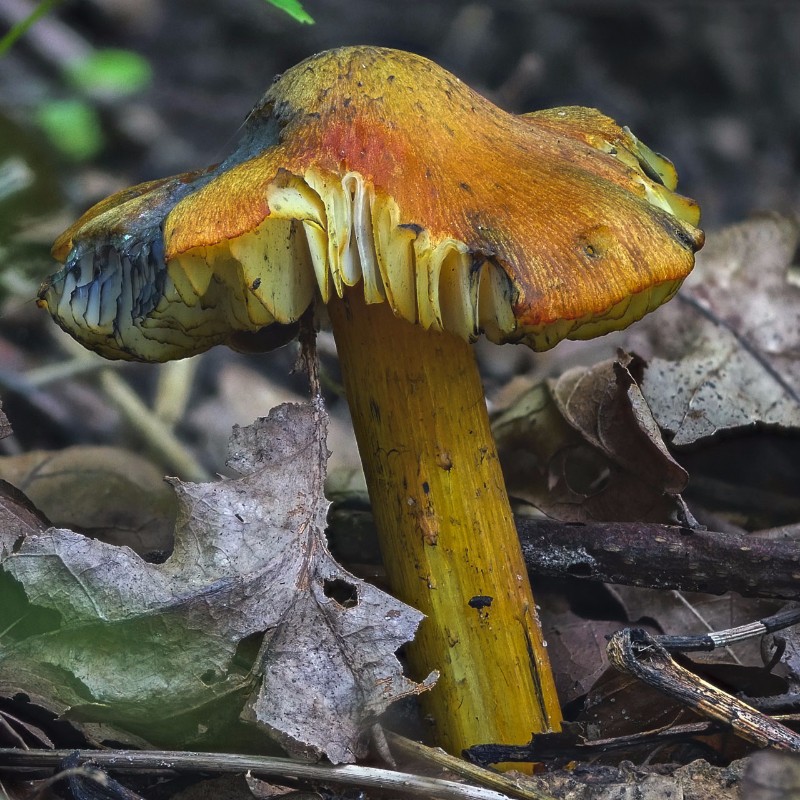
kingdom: Fungi
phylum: Basidiomycota
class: Agaricomycetes
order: Agaricales
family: Hygrophoraceae
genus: Hygrocybe
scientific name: Hygrocybe conica
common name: kegle-vokshat
